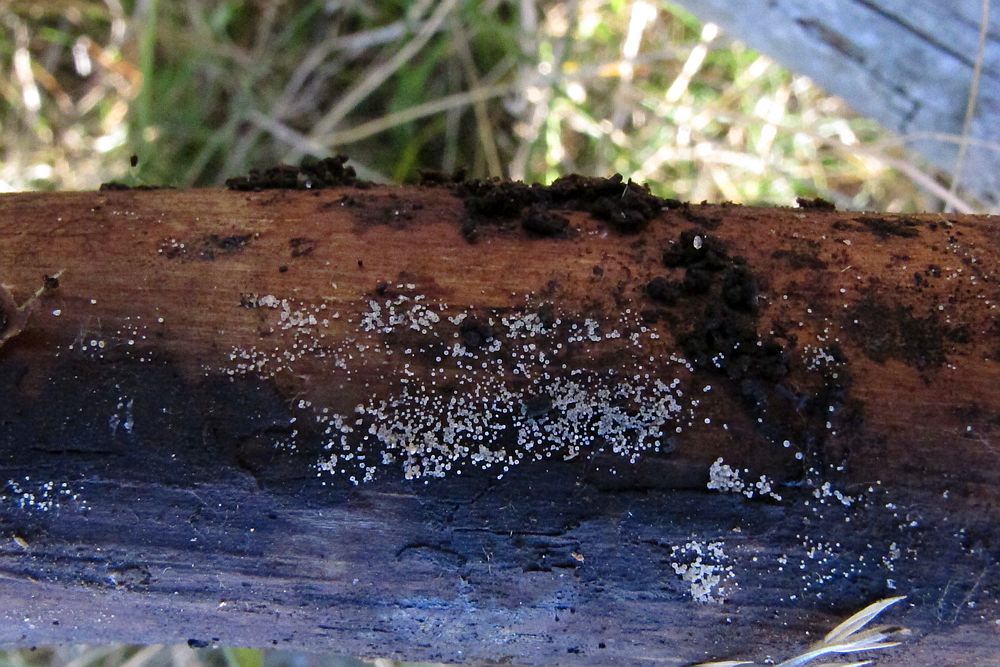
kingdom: Fungi
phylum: Ascomycota
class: Leotiomycetes
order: Helotiales
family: Hyaloscyphaceae
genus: Hyaloscypha
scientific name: Hyaloscypha
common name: klarskive
